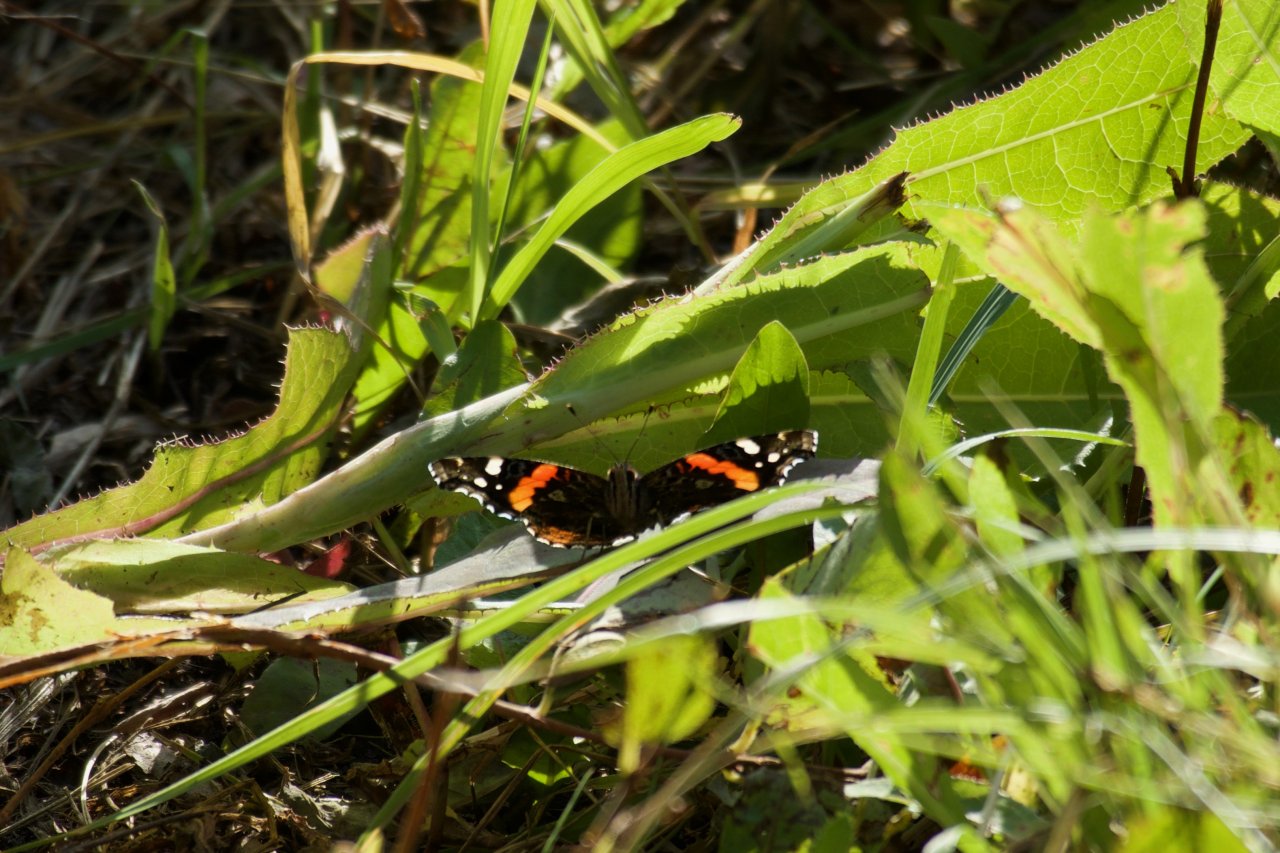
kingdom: Animalia
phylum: Arthropoda
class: Insecta
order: Lepidoptera
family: Nymphalidae
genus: Vanessa
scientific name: Vanessa atalanta
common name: Red Admiral
